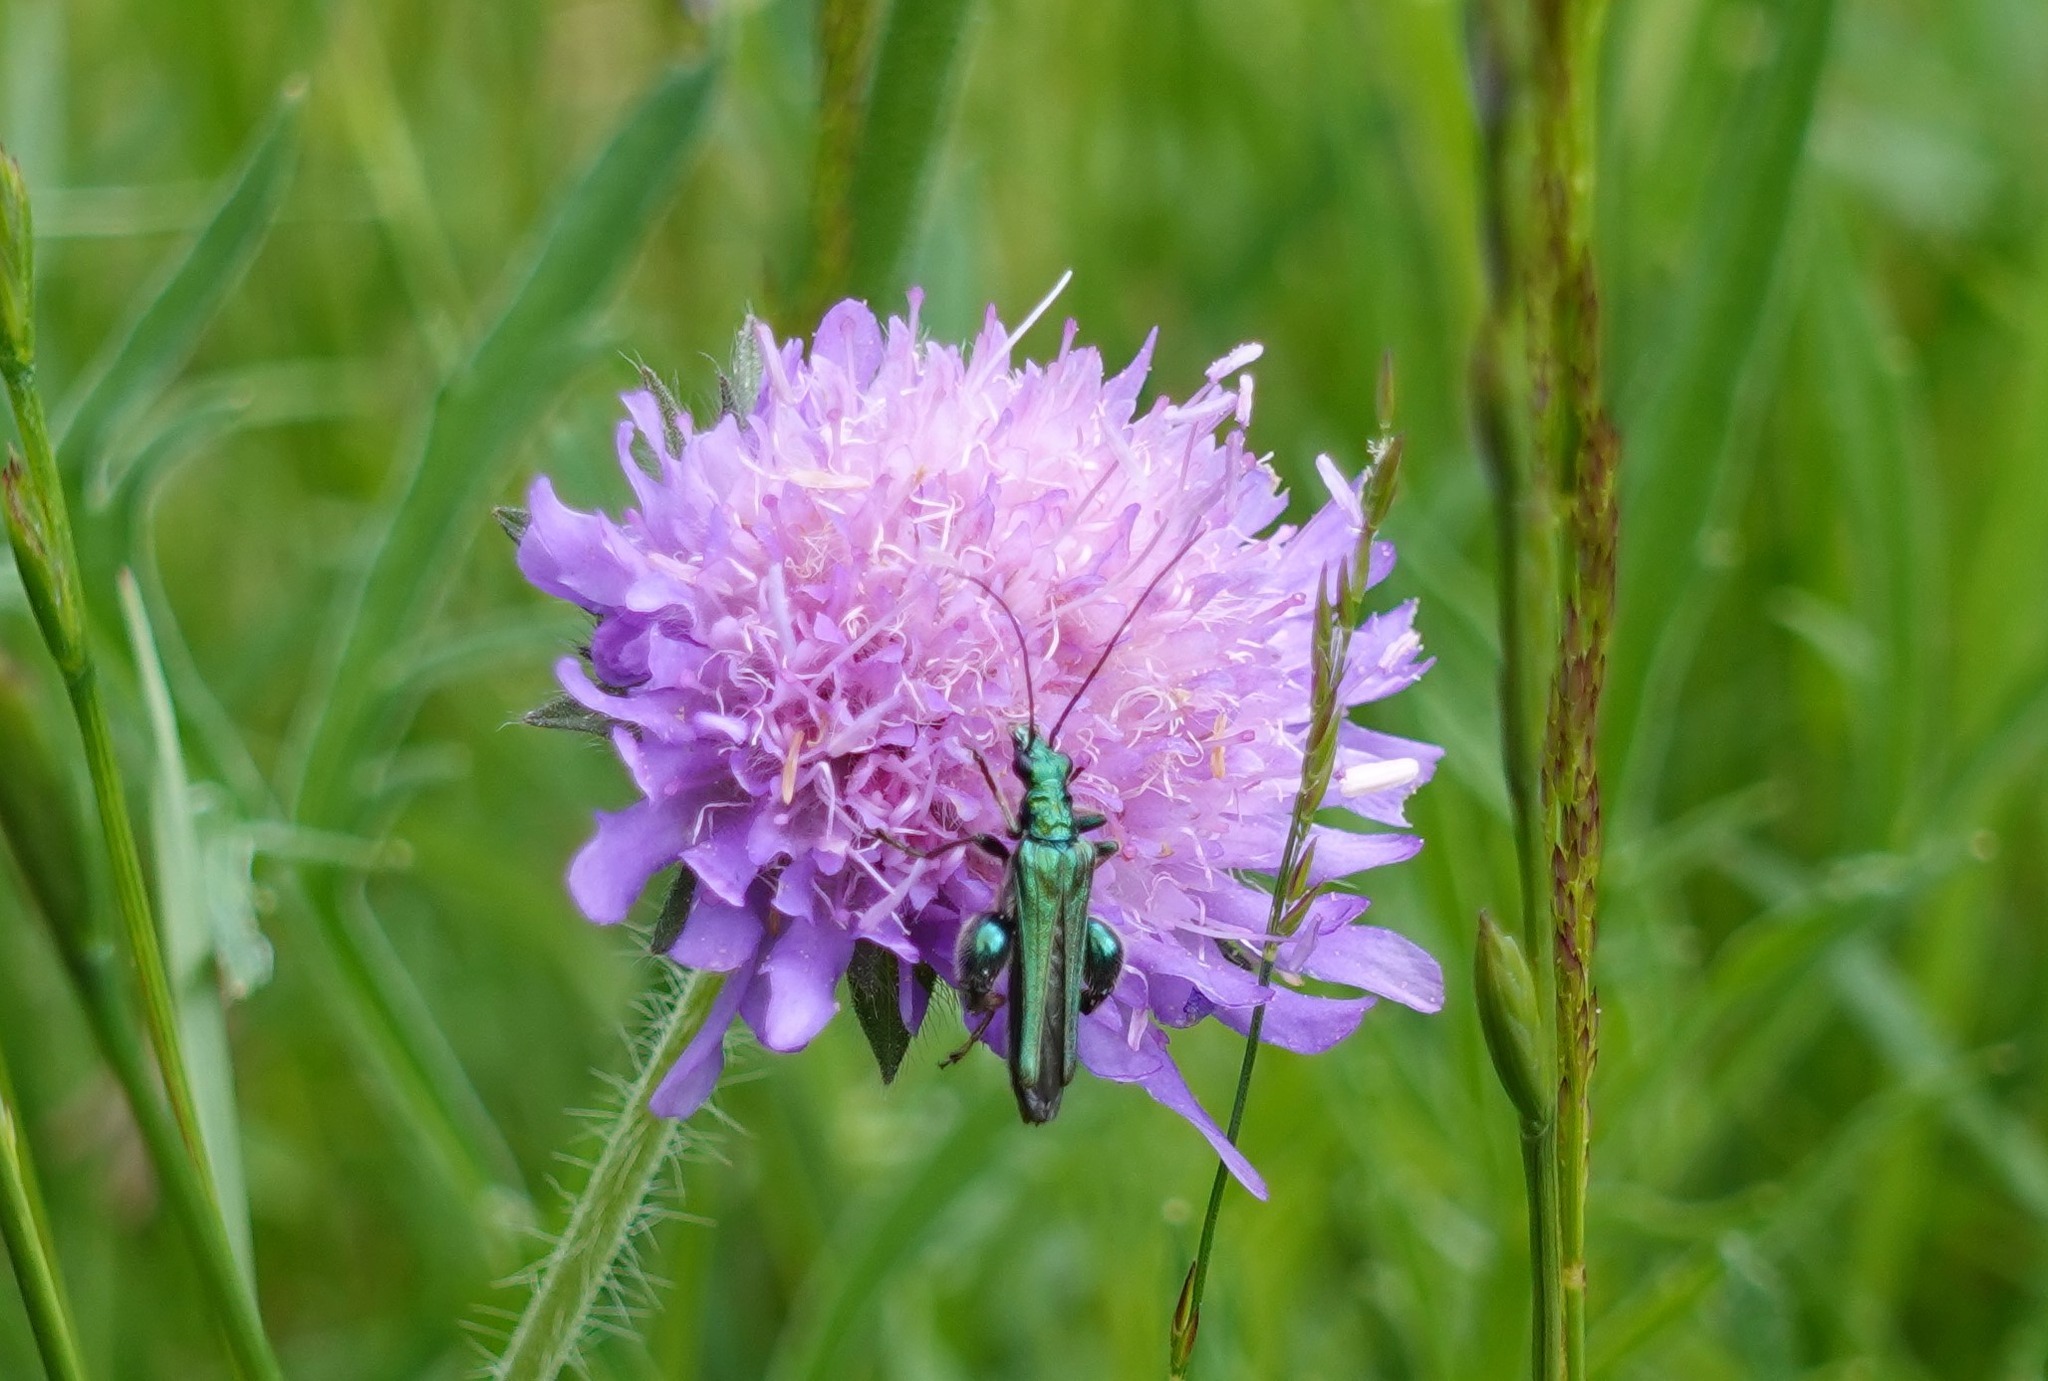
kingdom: Animalia
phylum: Arthropoda
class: Insecta
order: Coleoptera
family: Oedemeridae
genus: Oedemera
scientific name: Oedemera nobilis
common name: Tyklårssolbille
